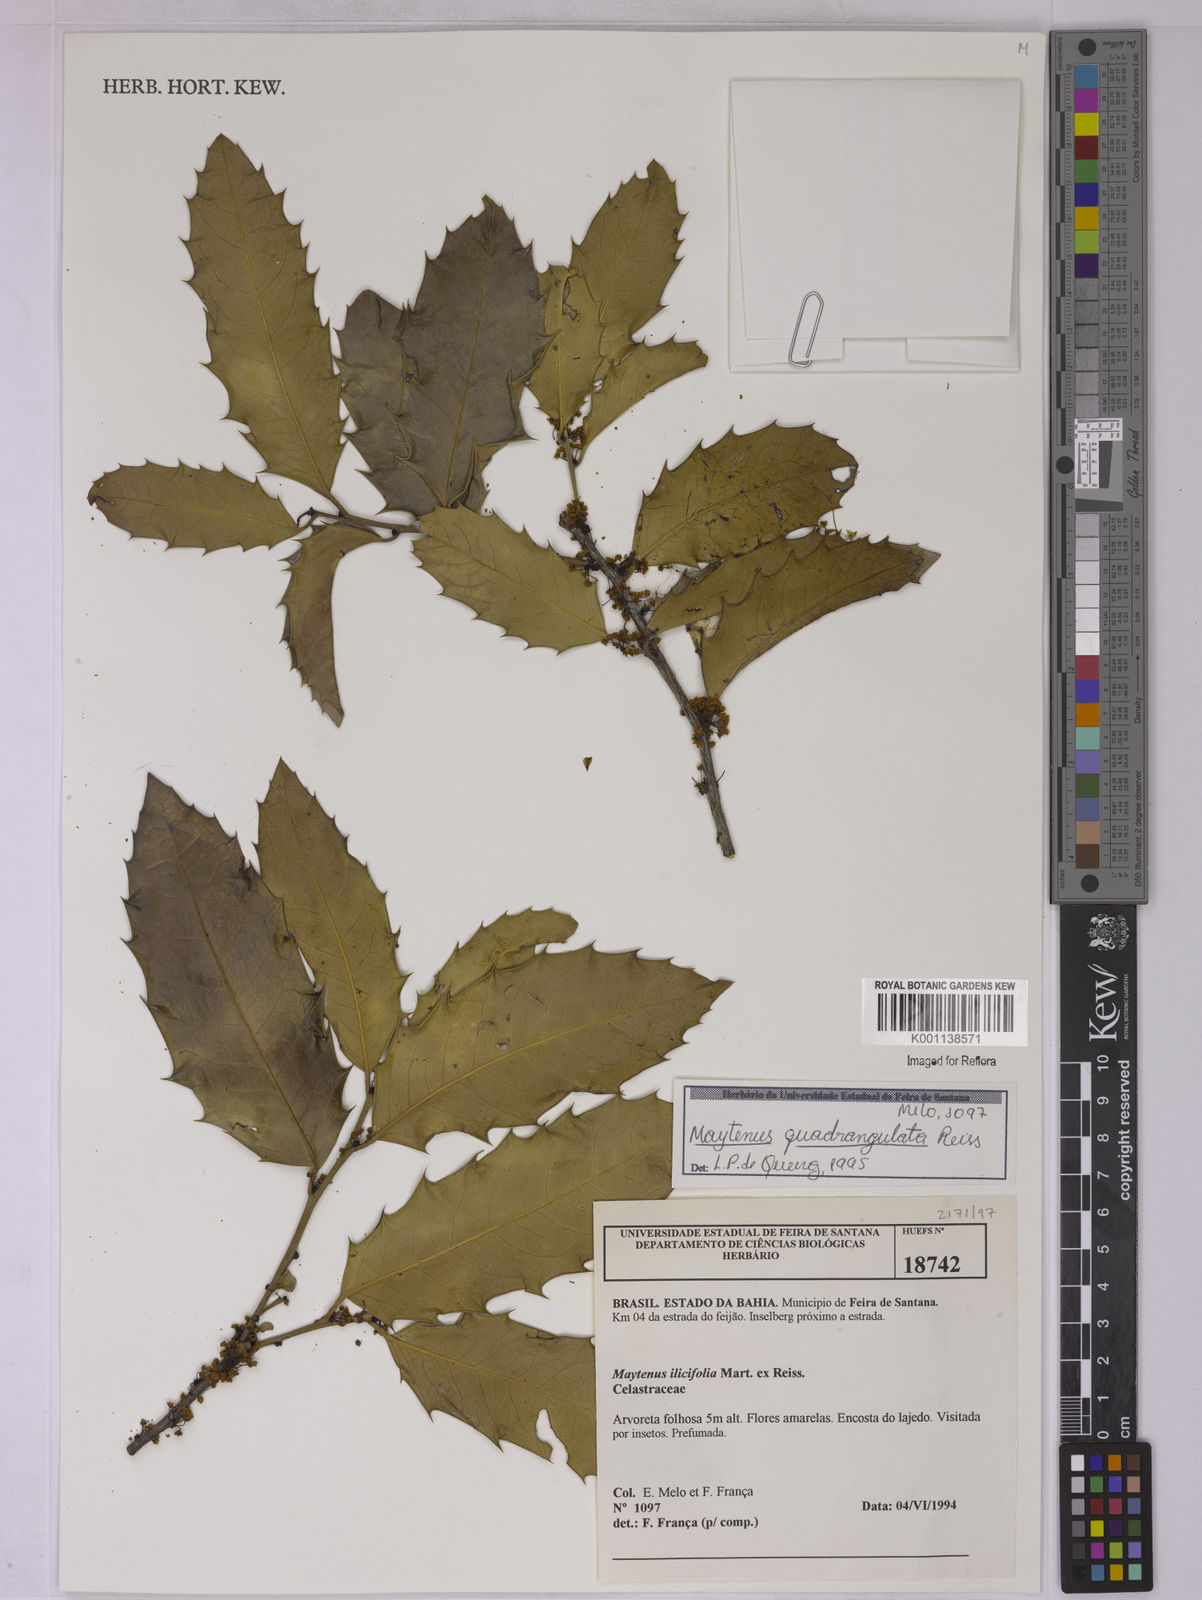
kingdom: Plantae
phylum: Tracheophyta
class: Magnoliopsida
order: Celastrales
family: Celastraceae
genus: Monteverdia
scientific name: Monteverdia quadrangulata
